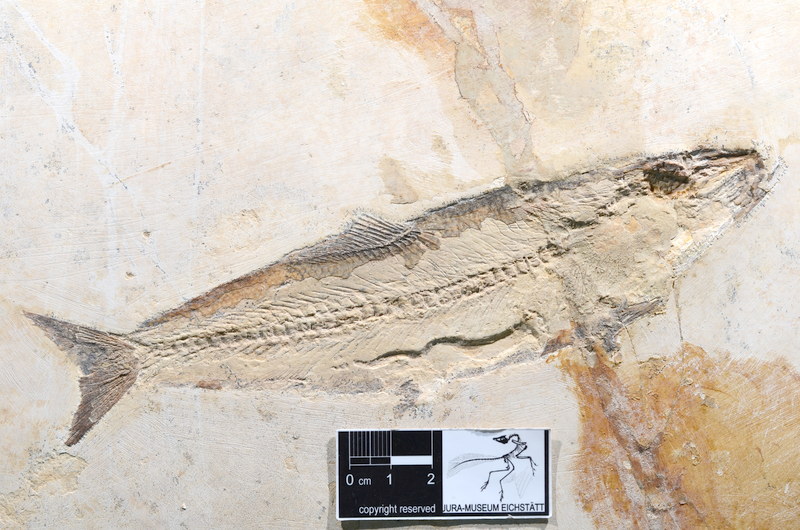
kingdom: Animalia
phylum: Chordata
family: Ascalaboidae
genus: Tharsis
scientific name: Tharsis dubius
